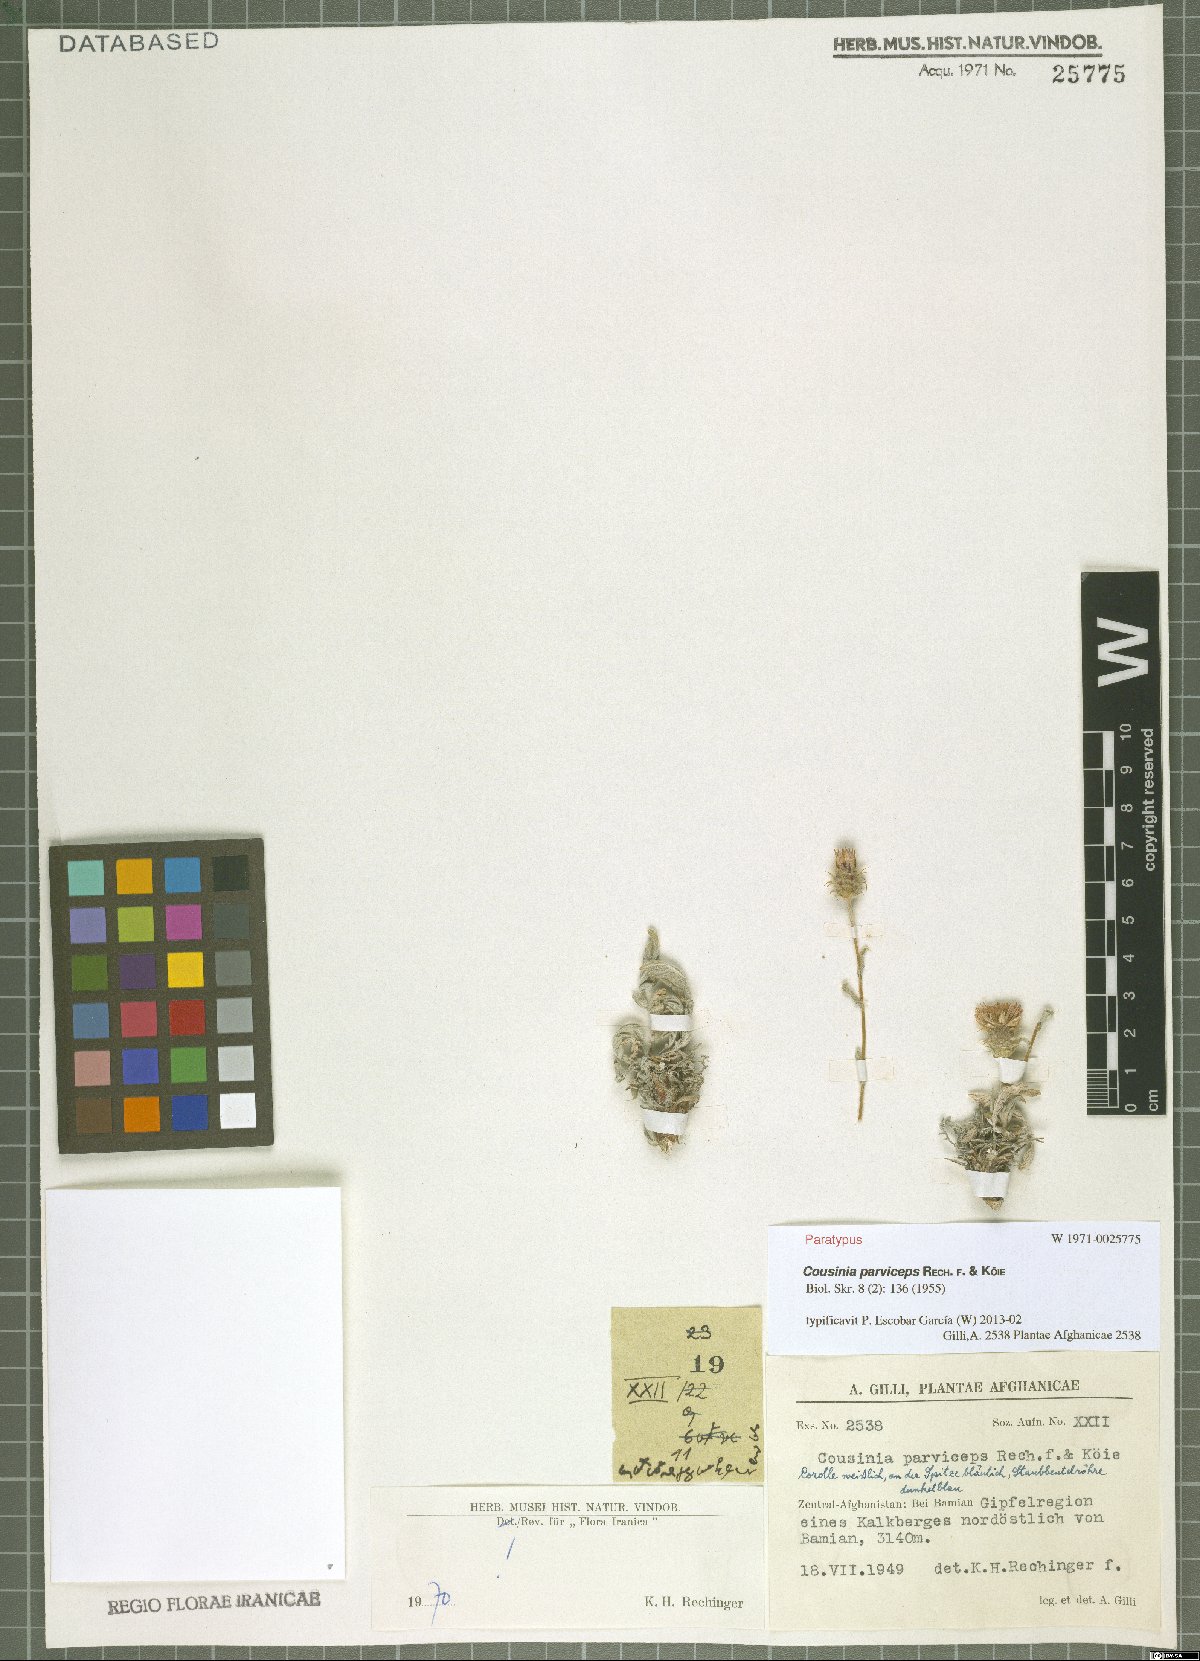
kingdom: Plantae
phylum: Tracheophyta
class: Magnoliopsida
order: Asterales
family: Asteraceae
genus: Cousinia
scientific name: Cousinia parviceps
